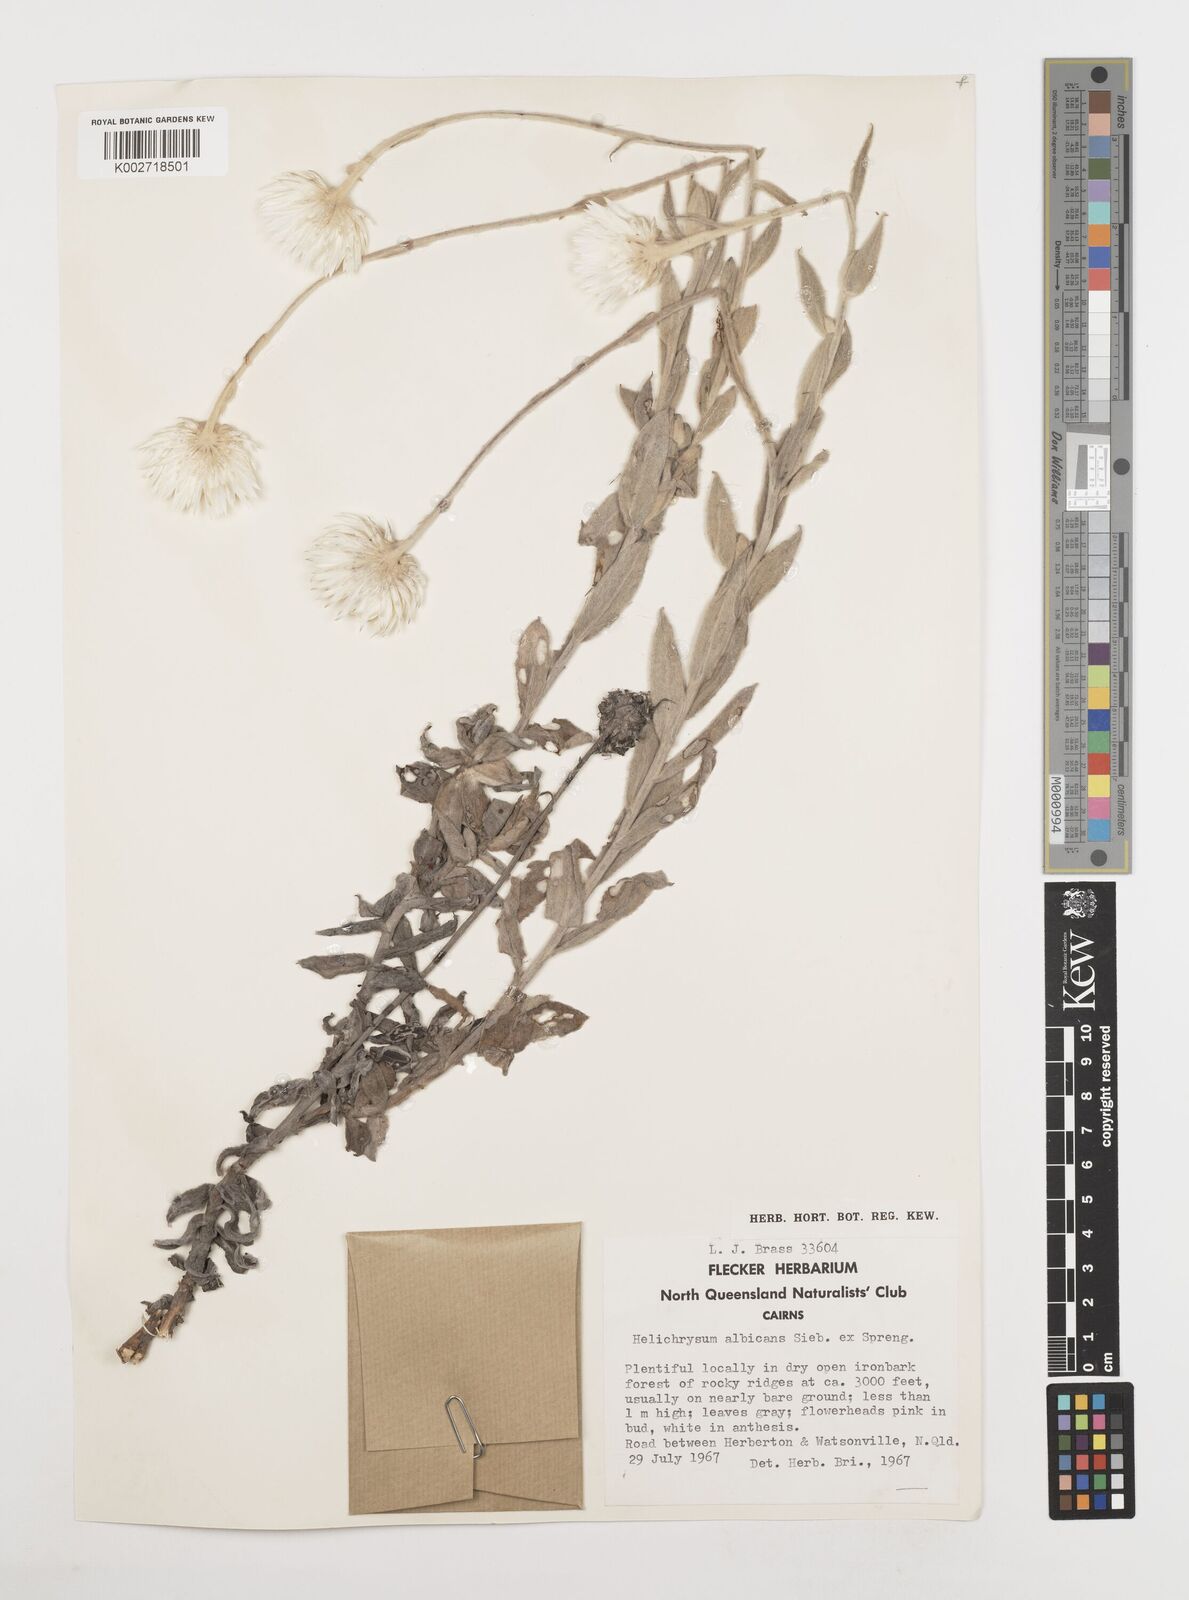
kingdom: Plantae
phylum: Tracheophyta
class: Magnoliopsida
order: Asterales
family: Asteraceae
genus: Leucozoma
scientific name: Leucozoma elatum
